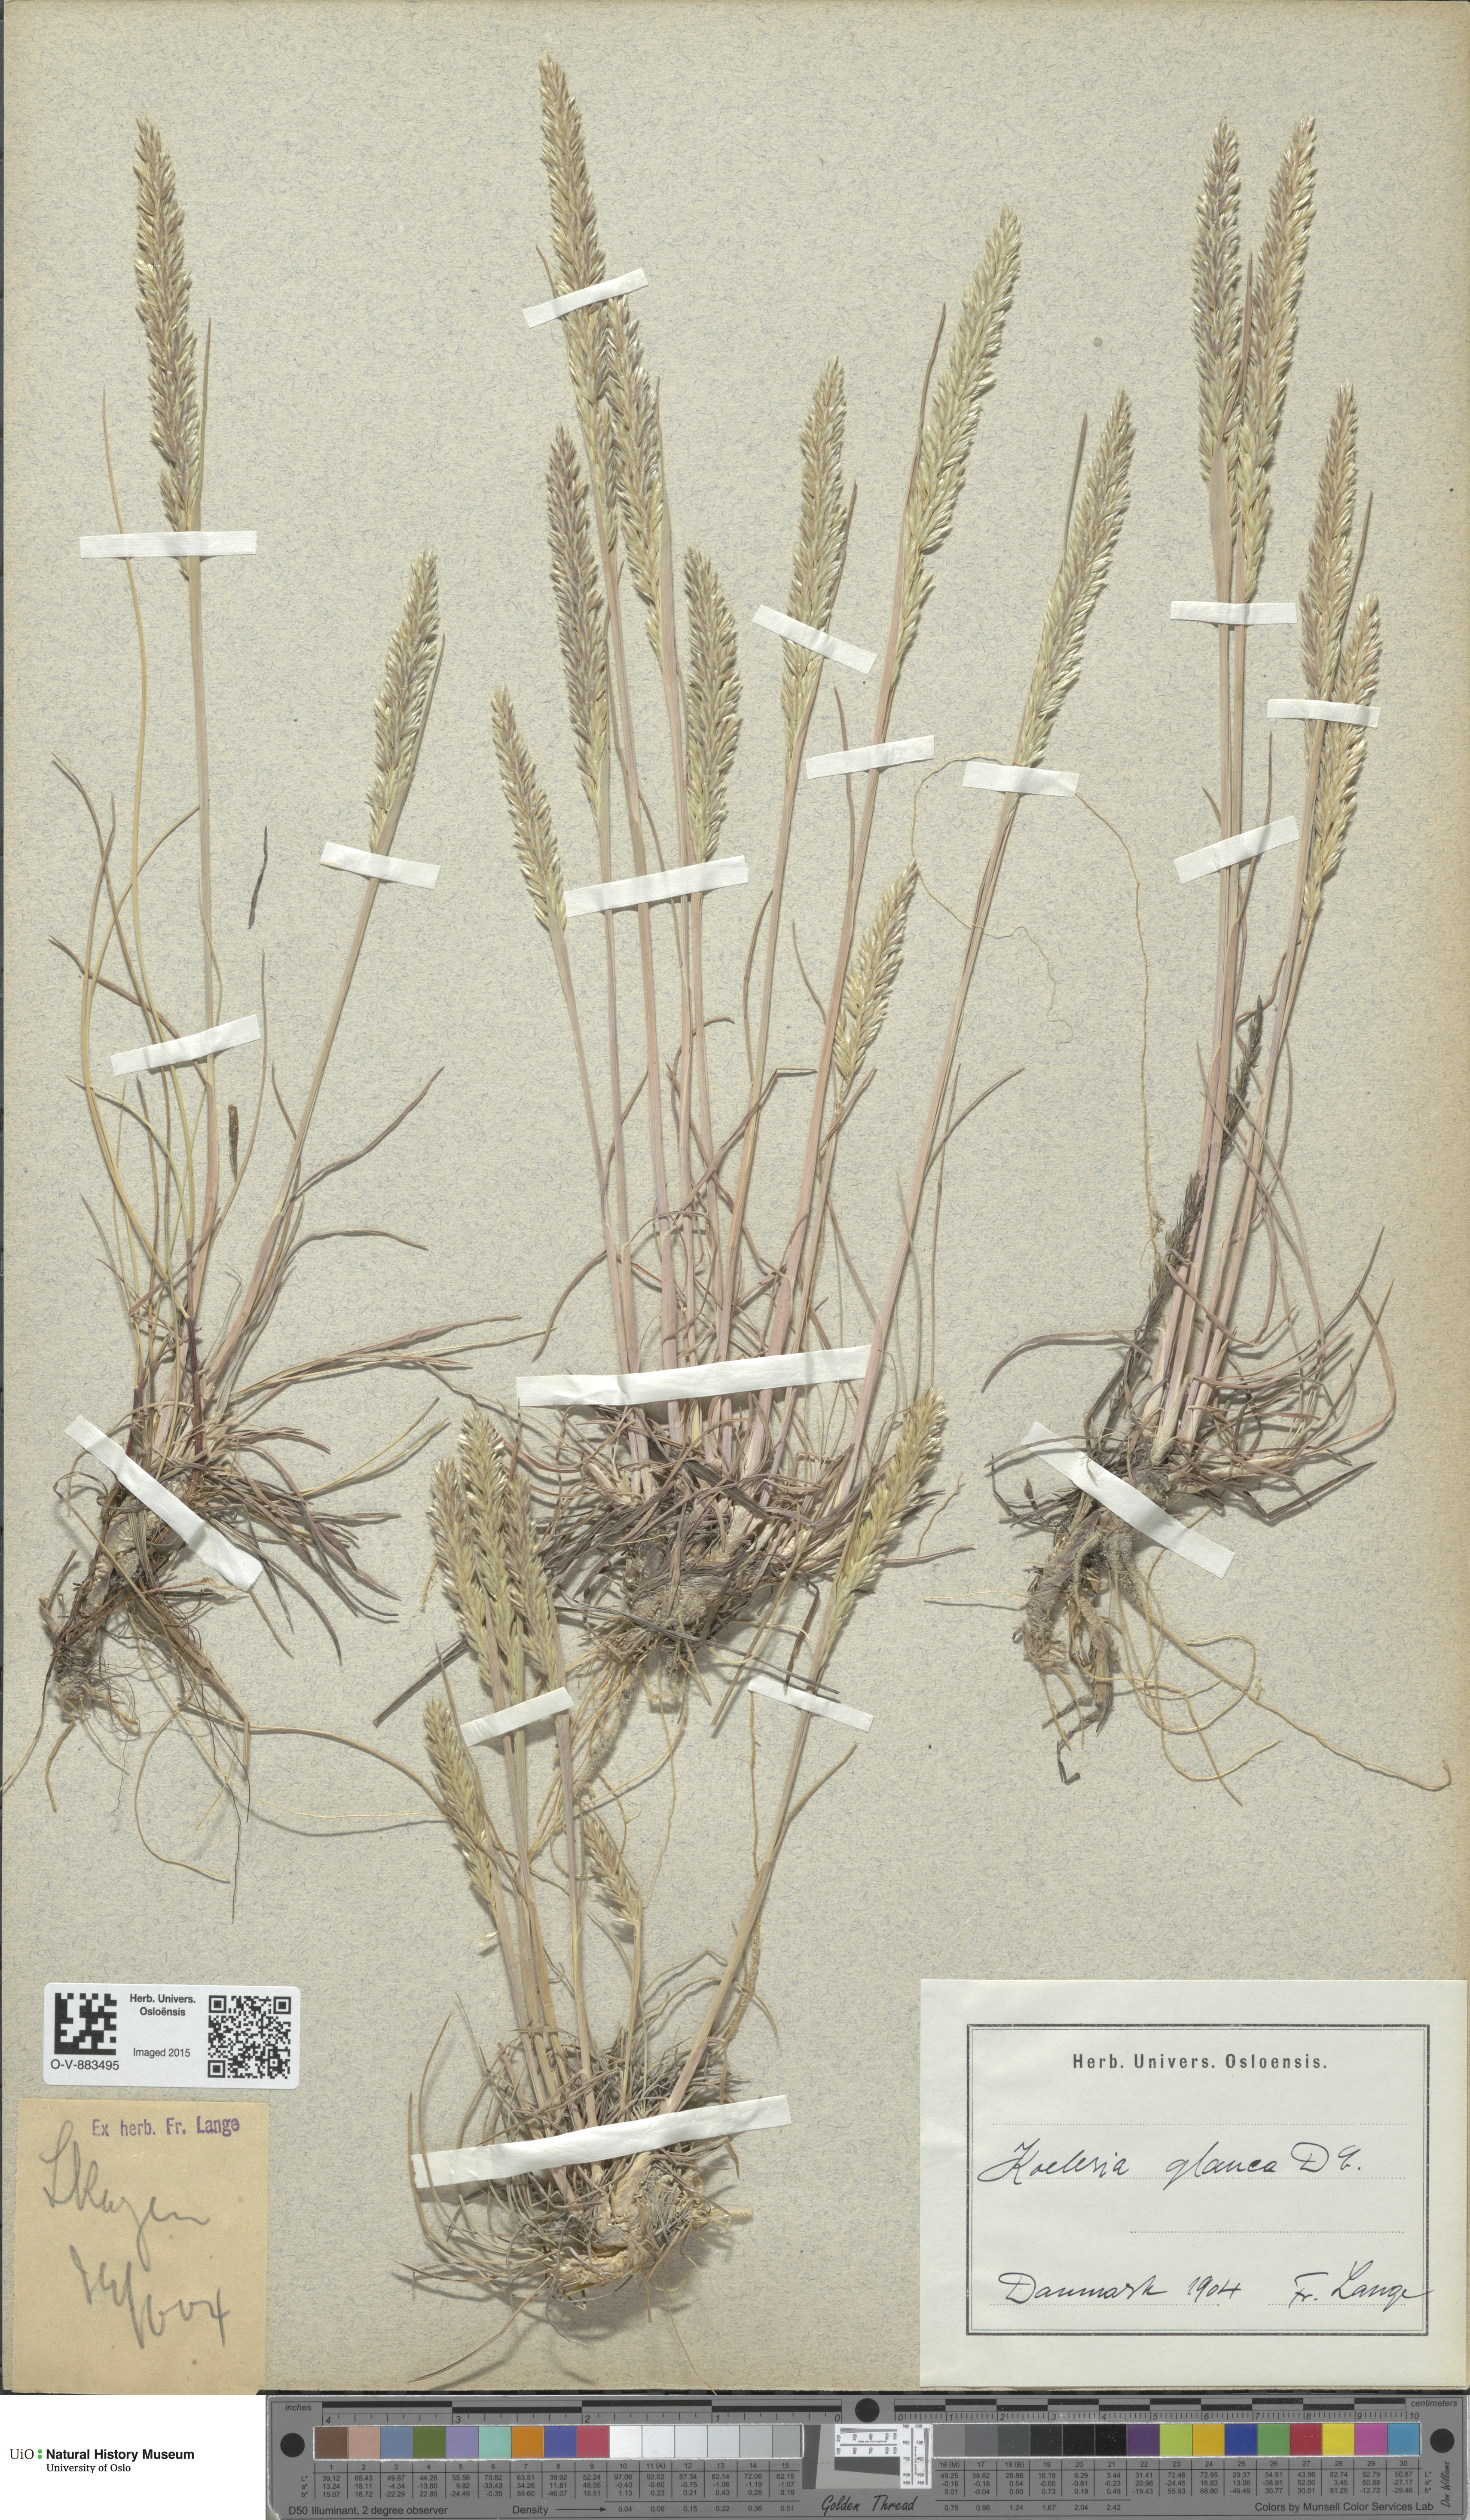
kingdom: Plantae
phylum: Tracheophyta
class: Liliopsida
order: Poales
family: Poaceae
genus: Koeleria
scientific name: Koeleria glauca
